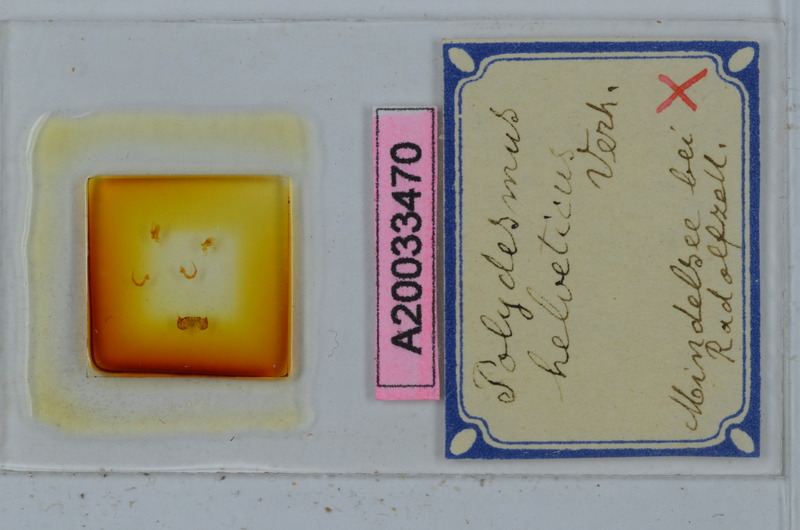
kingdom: Animalia
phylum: Arthropoda
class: Diplopoda
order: Polydesmida
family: Polydesmidae
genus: Propolydesmus
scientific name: Propolydesmus helveticus
